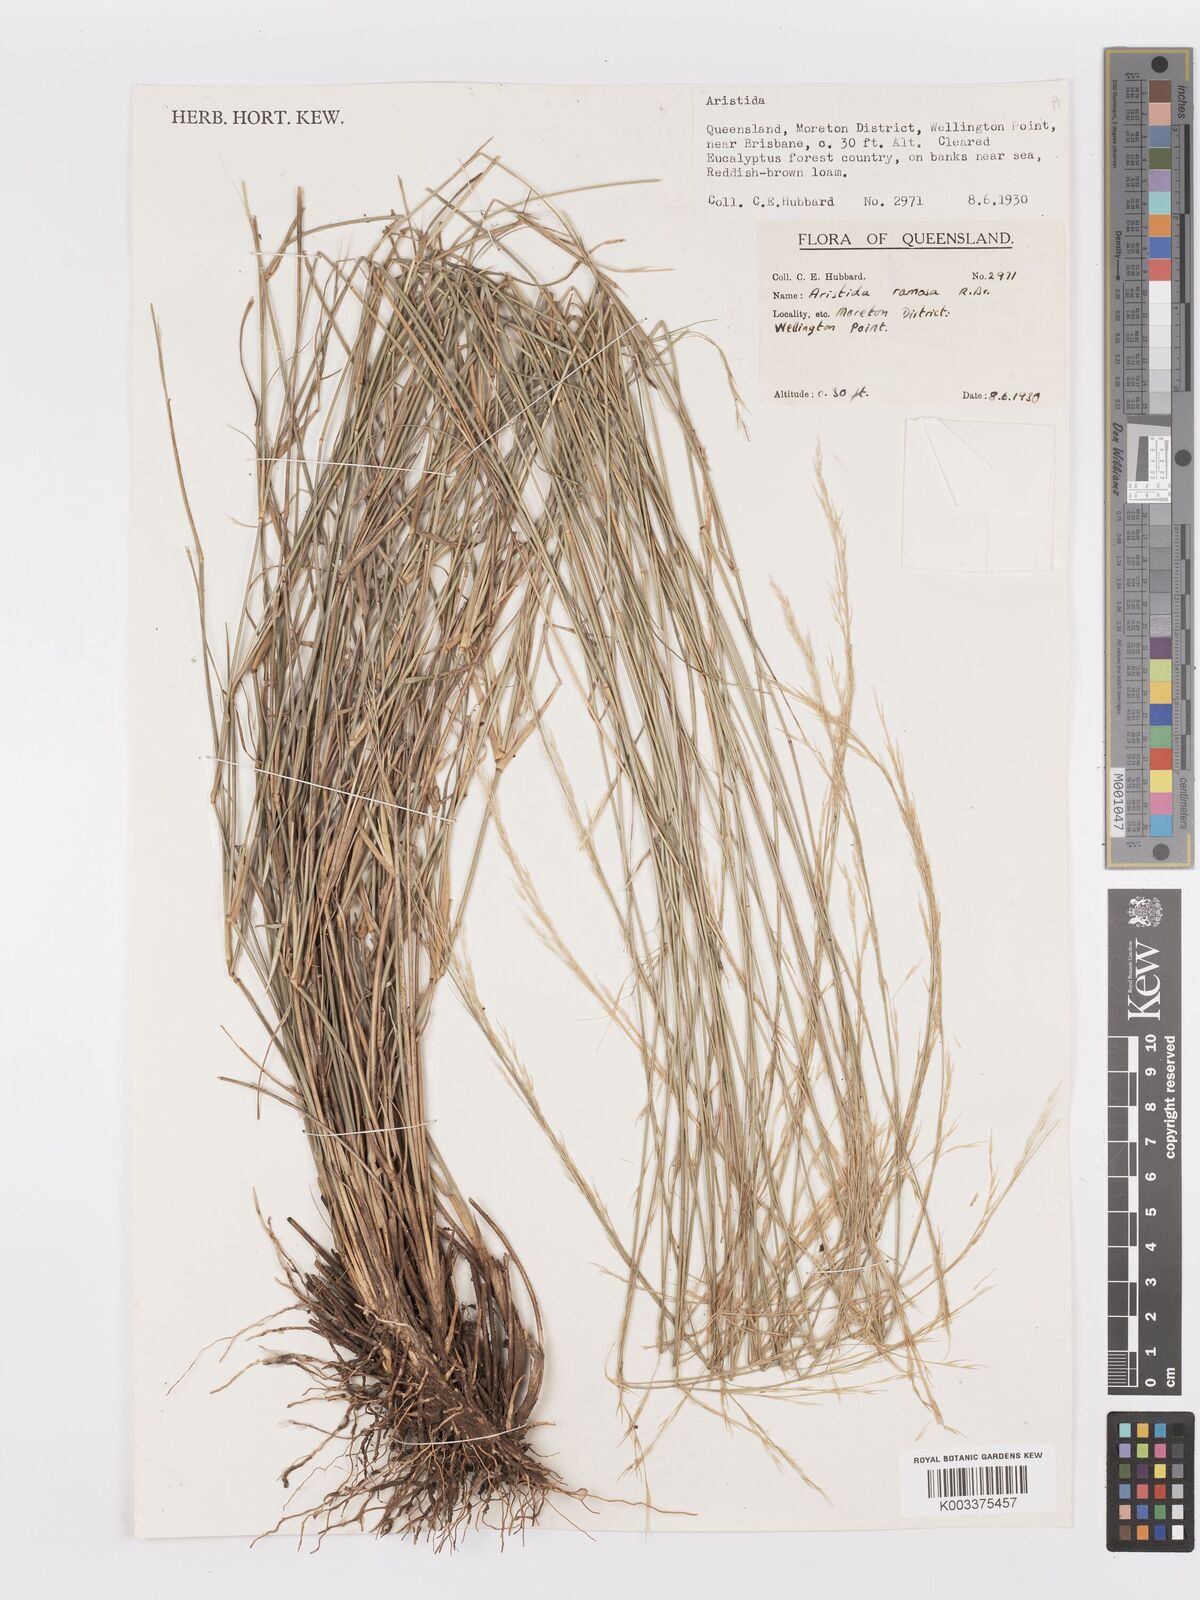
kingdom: Plantae
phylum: Tracheophyta
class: Liliopsida
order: Poales
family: Poaceae
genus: Aristida
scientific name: Aristida ramosa
